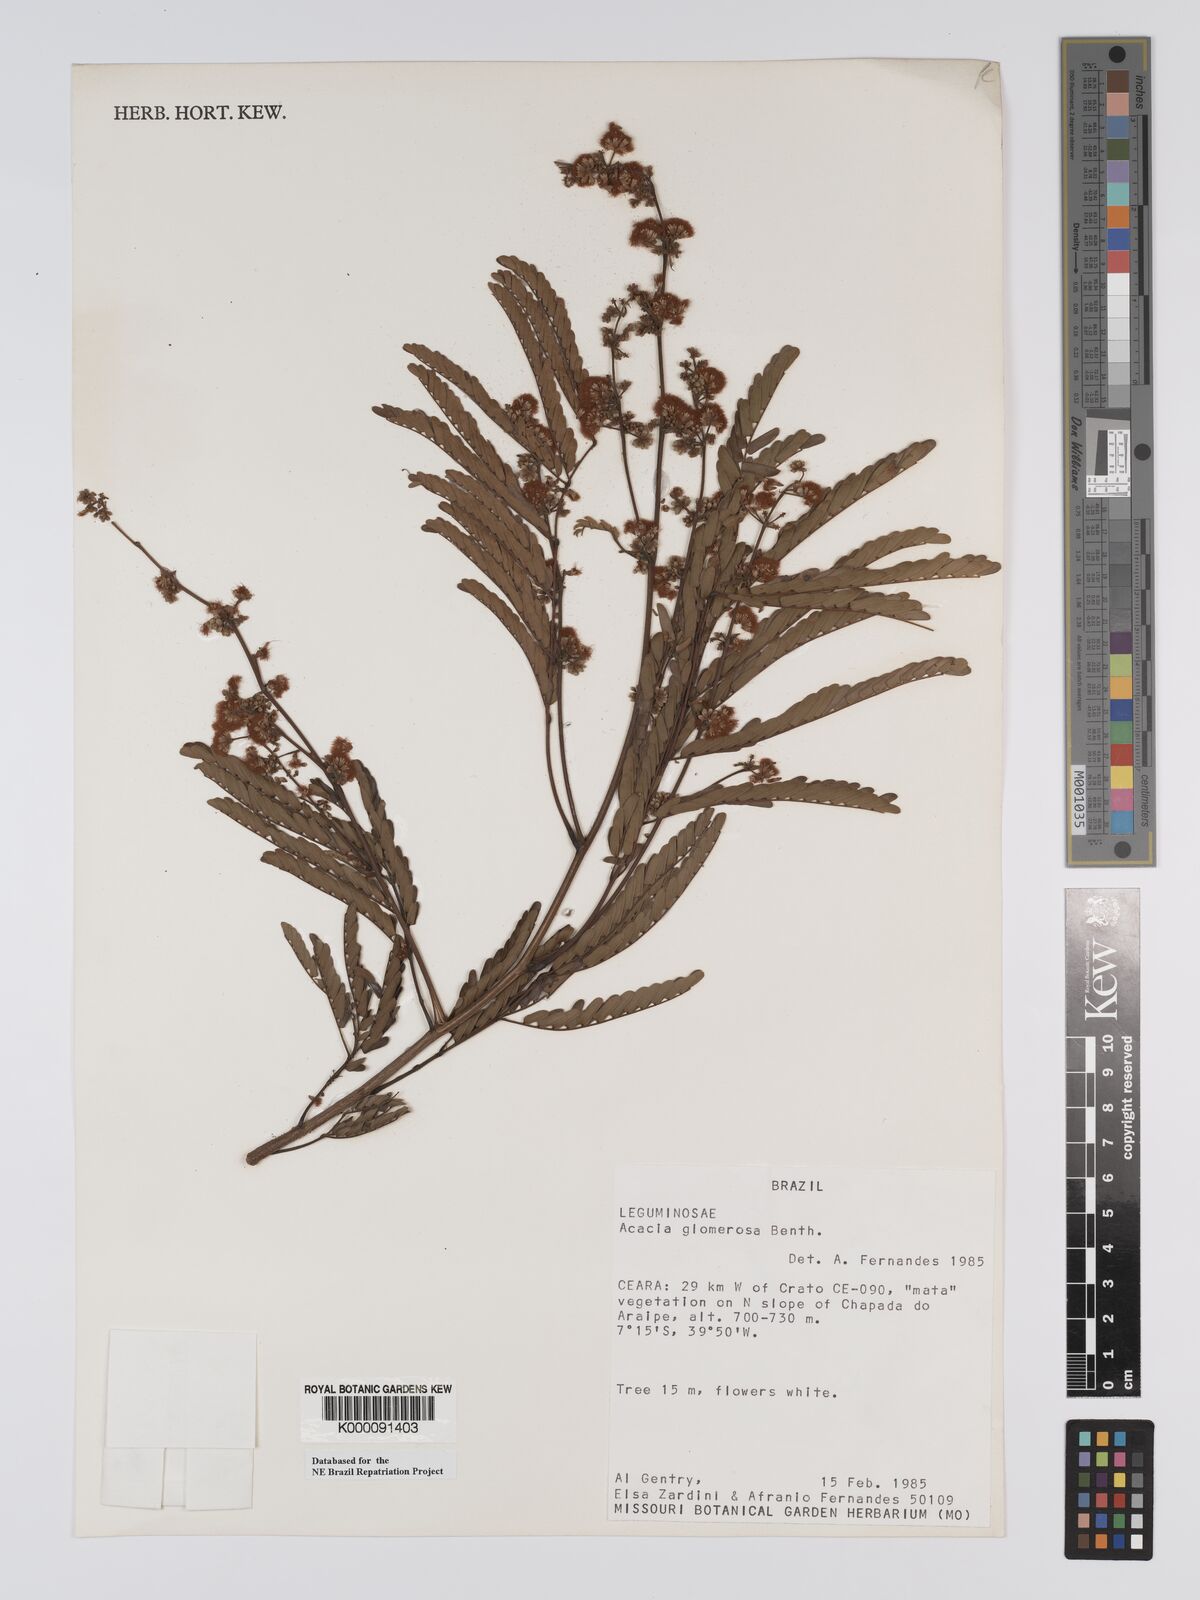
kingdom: Plantae
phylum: Tracheophyta
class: Magnoliopsida
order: Fabales
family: Fabaceae
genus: Senegalia
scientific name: Senegalia polyphylla
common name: White-tamarind
